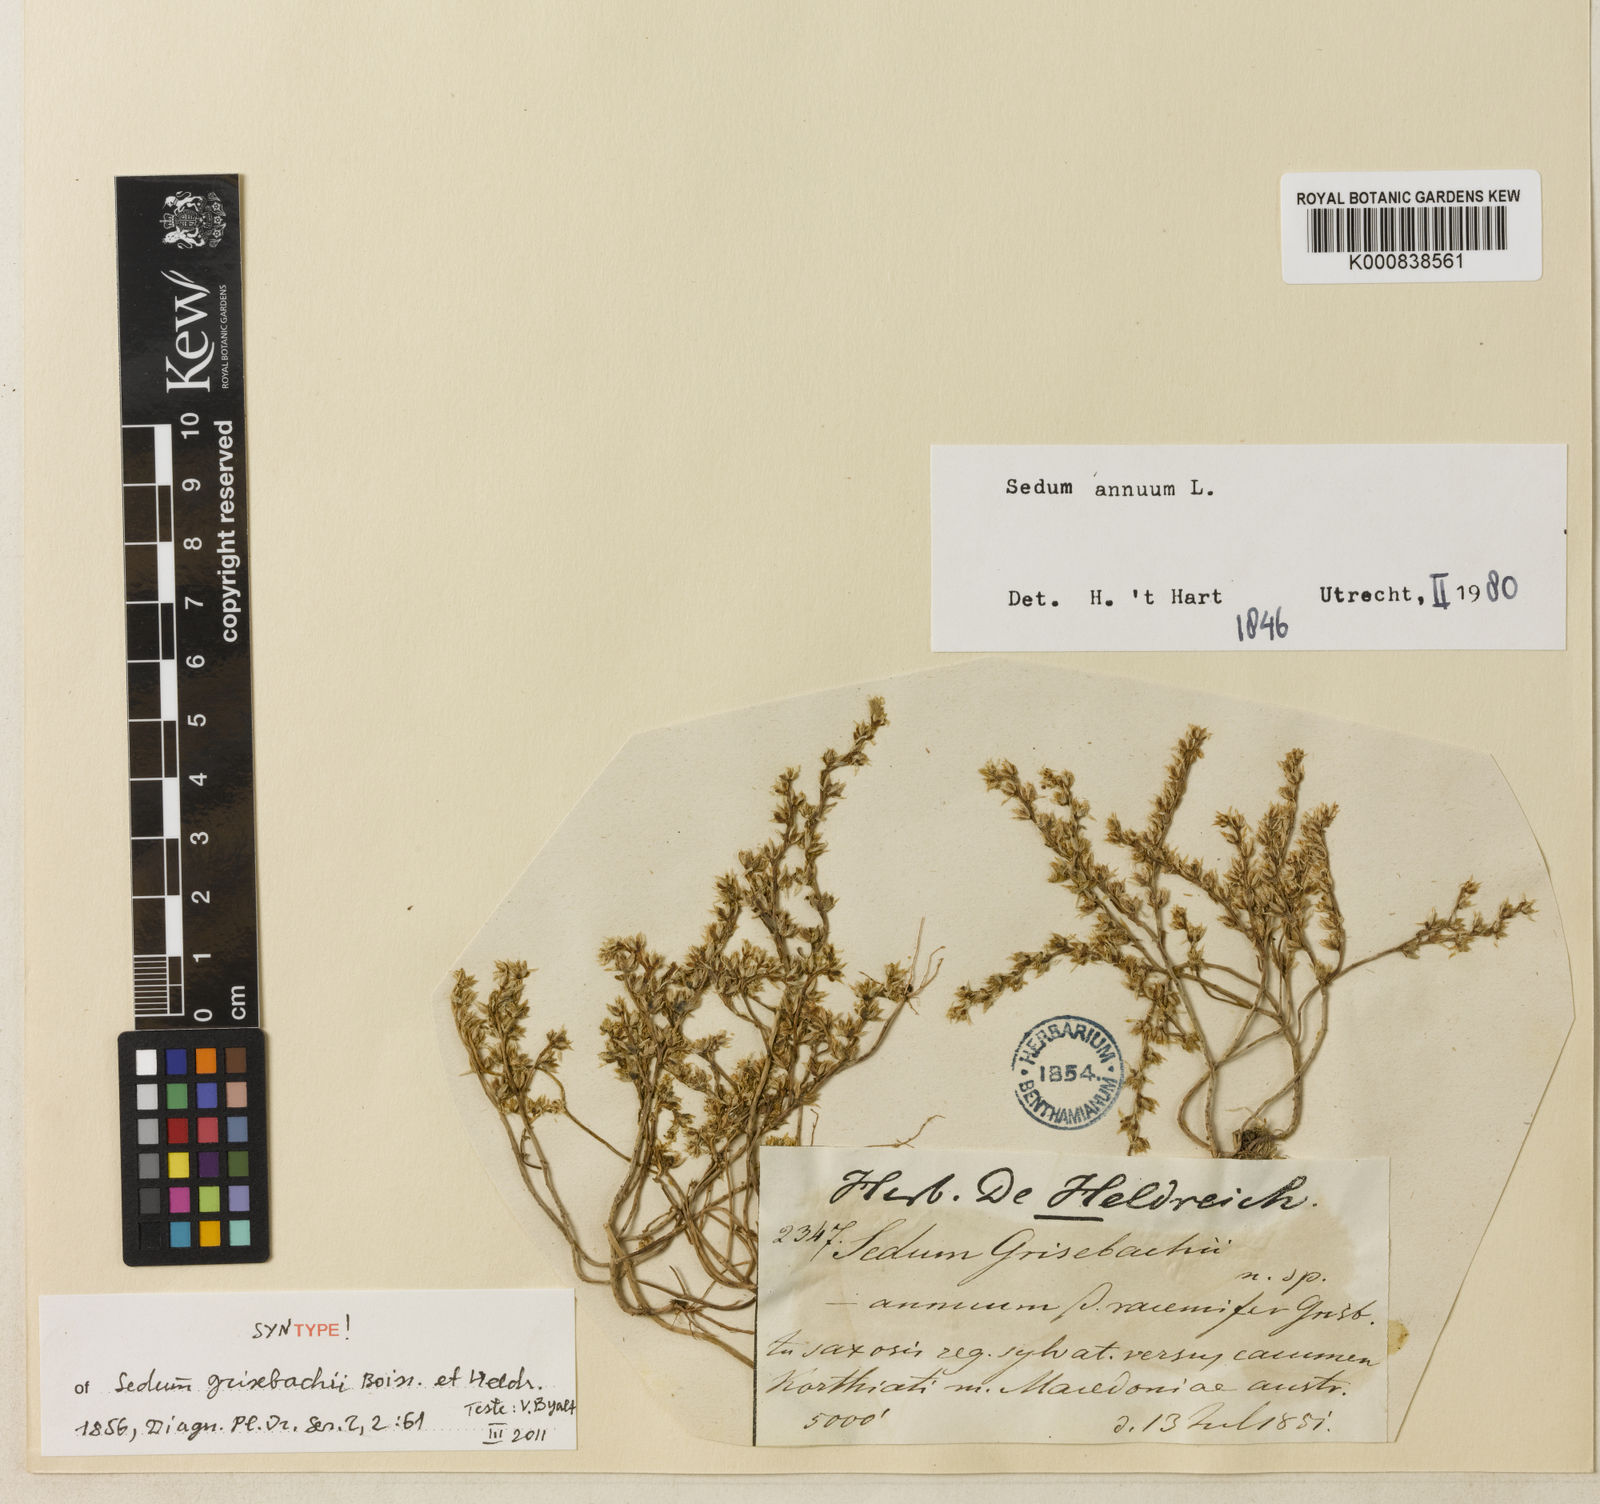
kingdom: Plantae
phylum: Tracheophyta
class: Magnoliopsida
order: Saxifragales
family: Crassulaceae
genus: Sedum
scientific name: Sedum annuum
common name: Annual stonecrop
